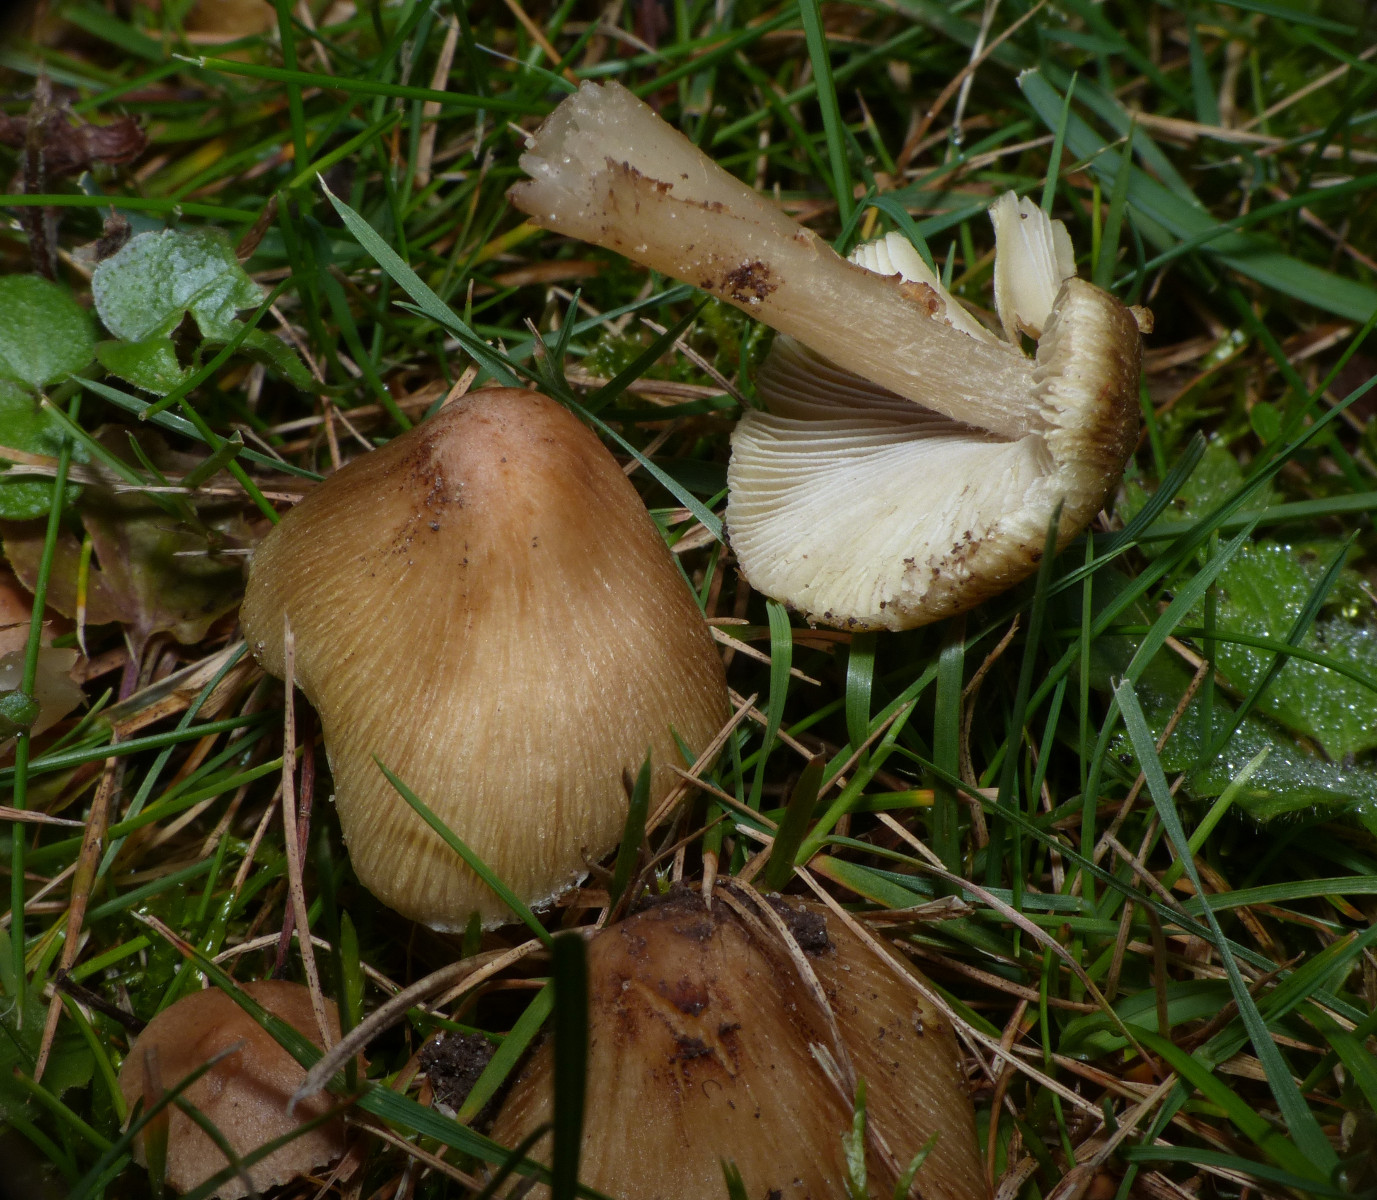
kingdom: Fungi
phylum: Basidiomycota
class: Agaricomycetes
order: Agaricales
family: Inocybaceae
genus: Pseudosperma
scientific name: Pseudosperma
